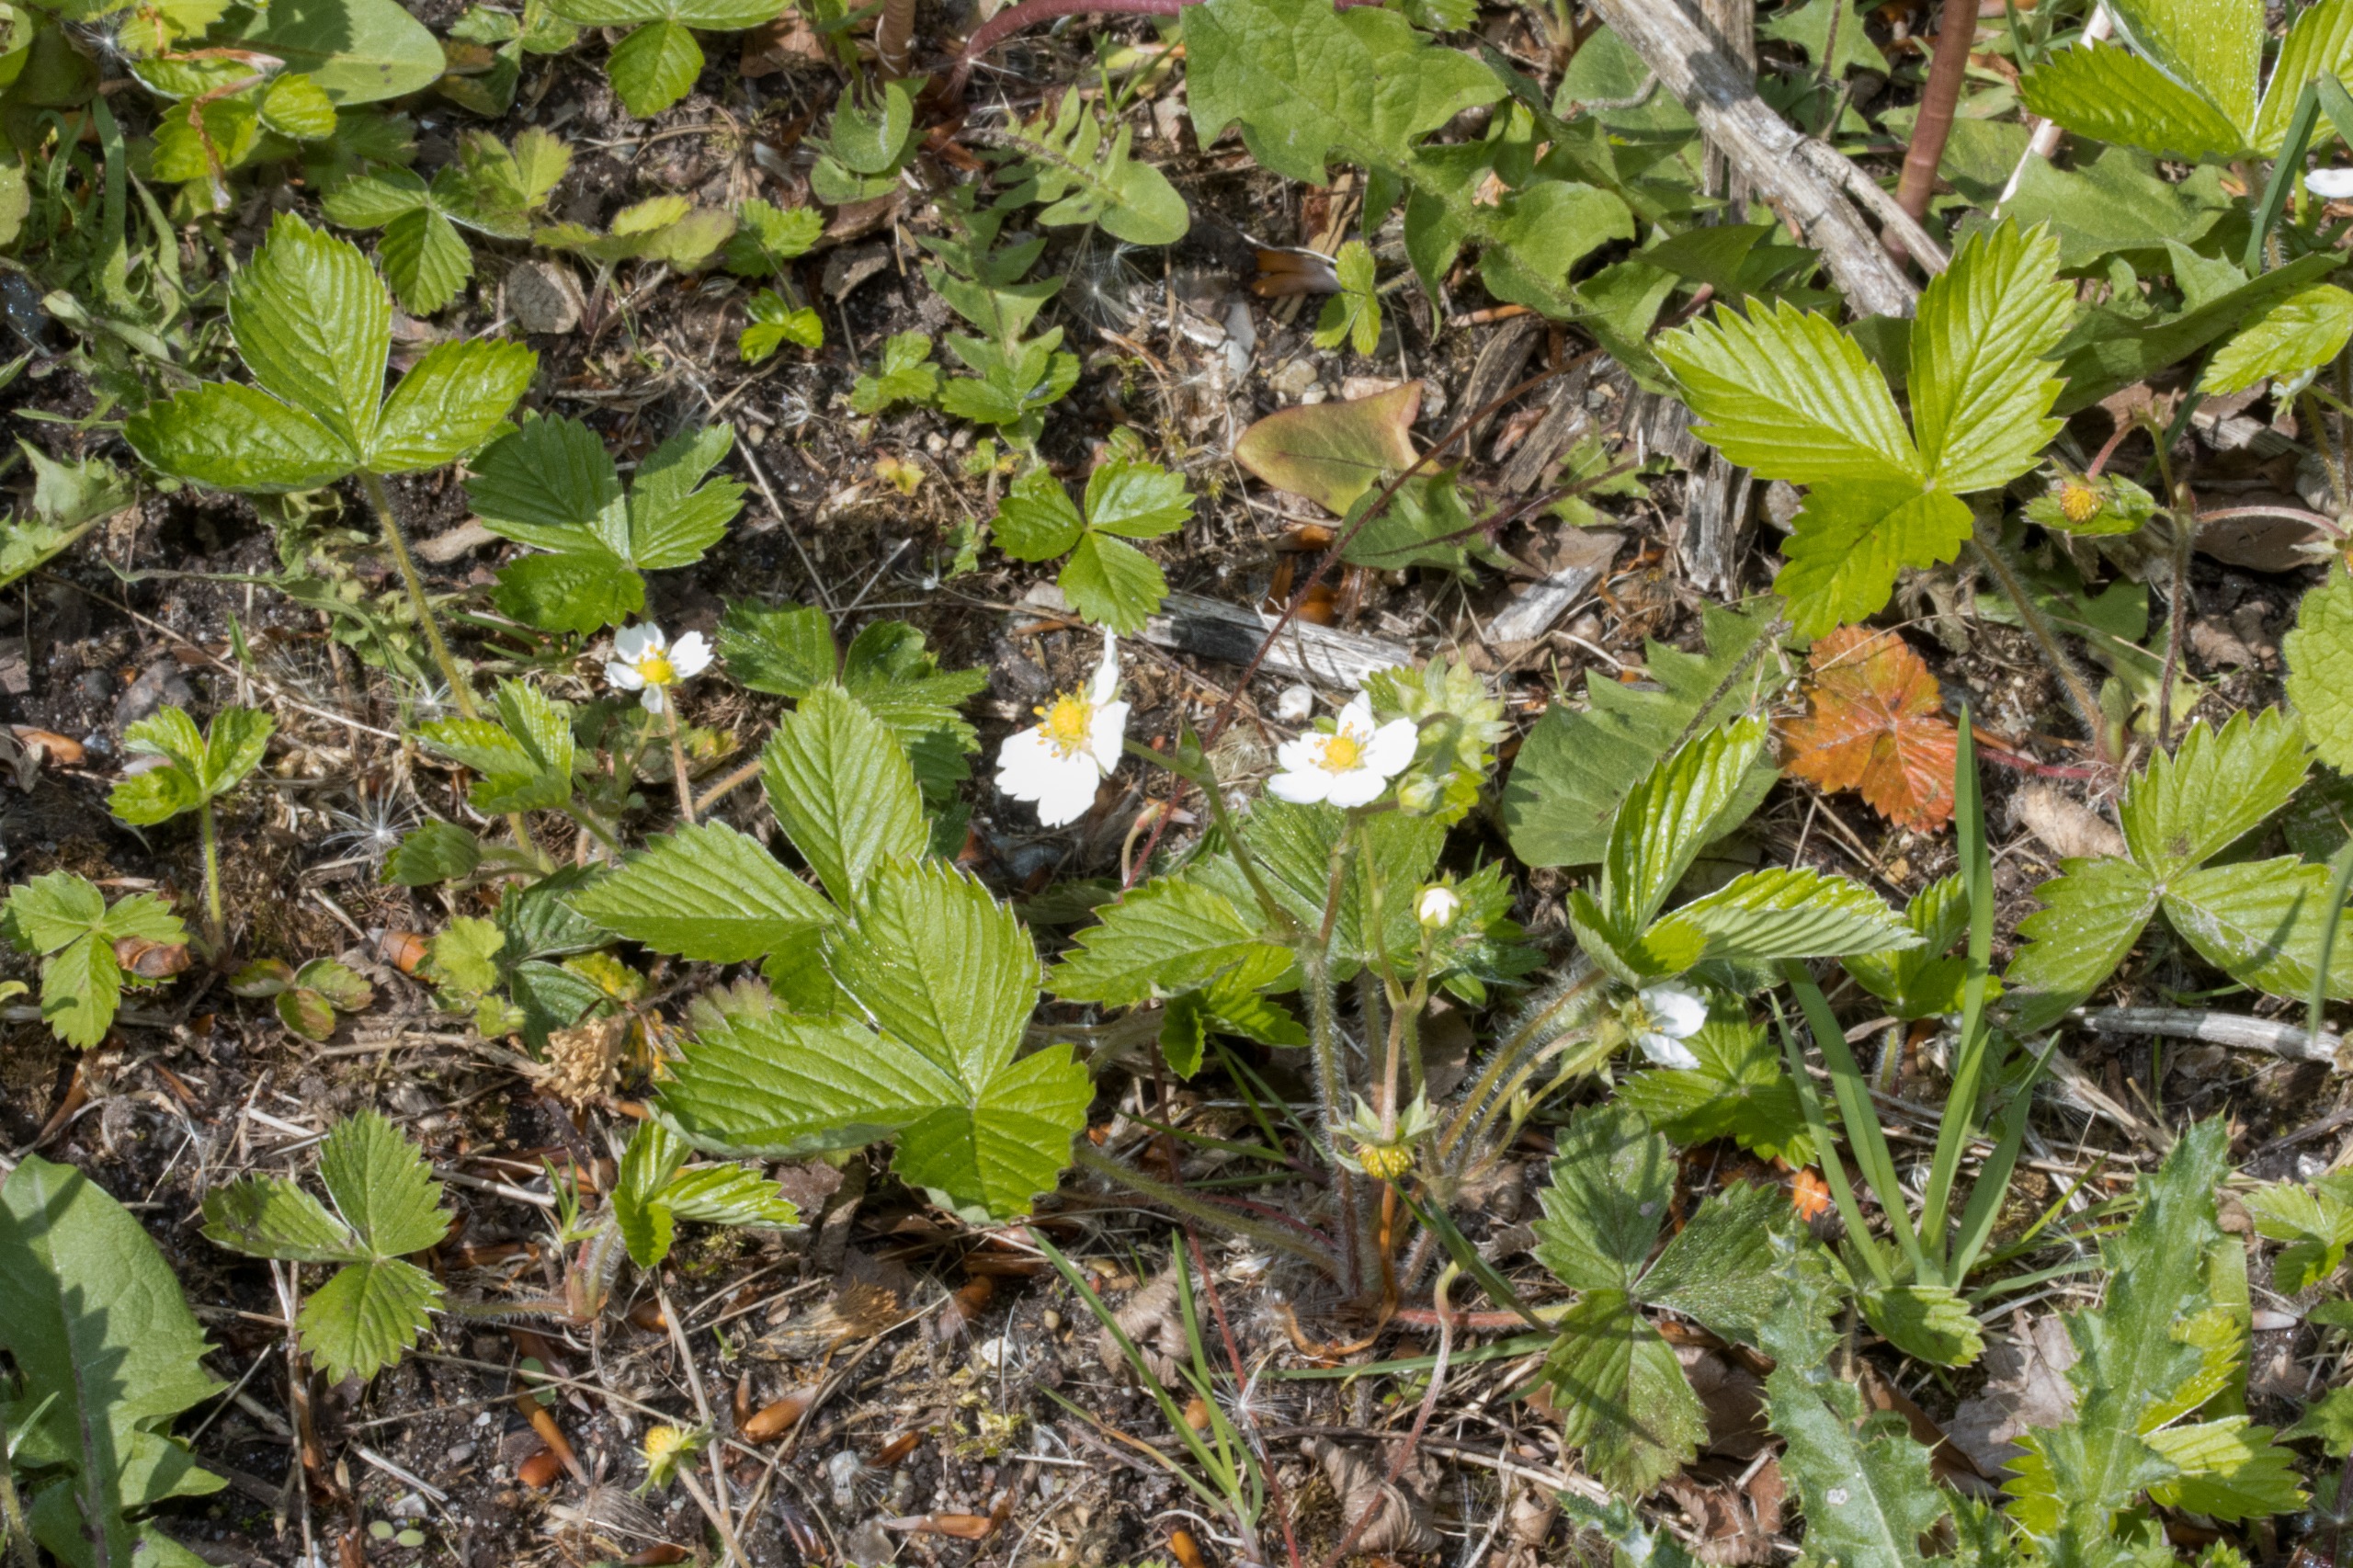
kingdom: Plantae
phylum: Tracheophyta
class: Magnoliopsida
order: Rosales
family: Rosaceae
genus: Fragaria
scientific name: Fragaria vesca
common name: Skov-jordbær
